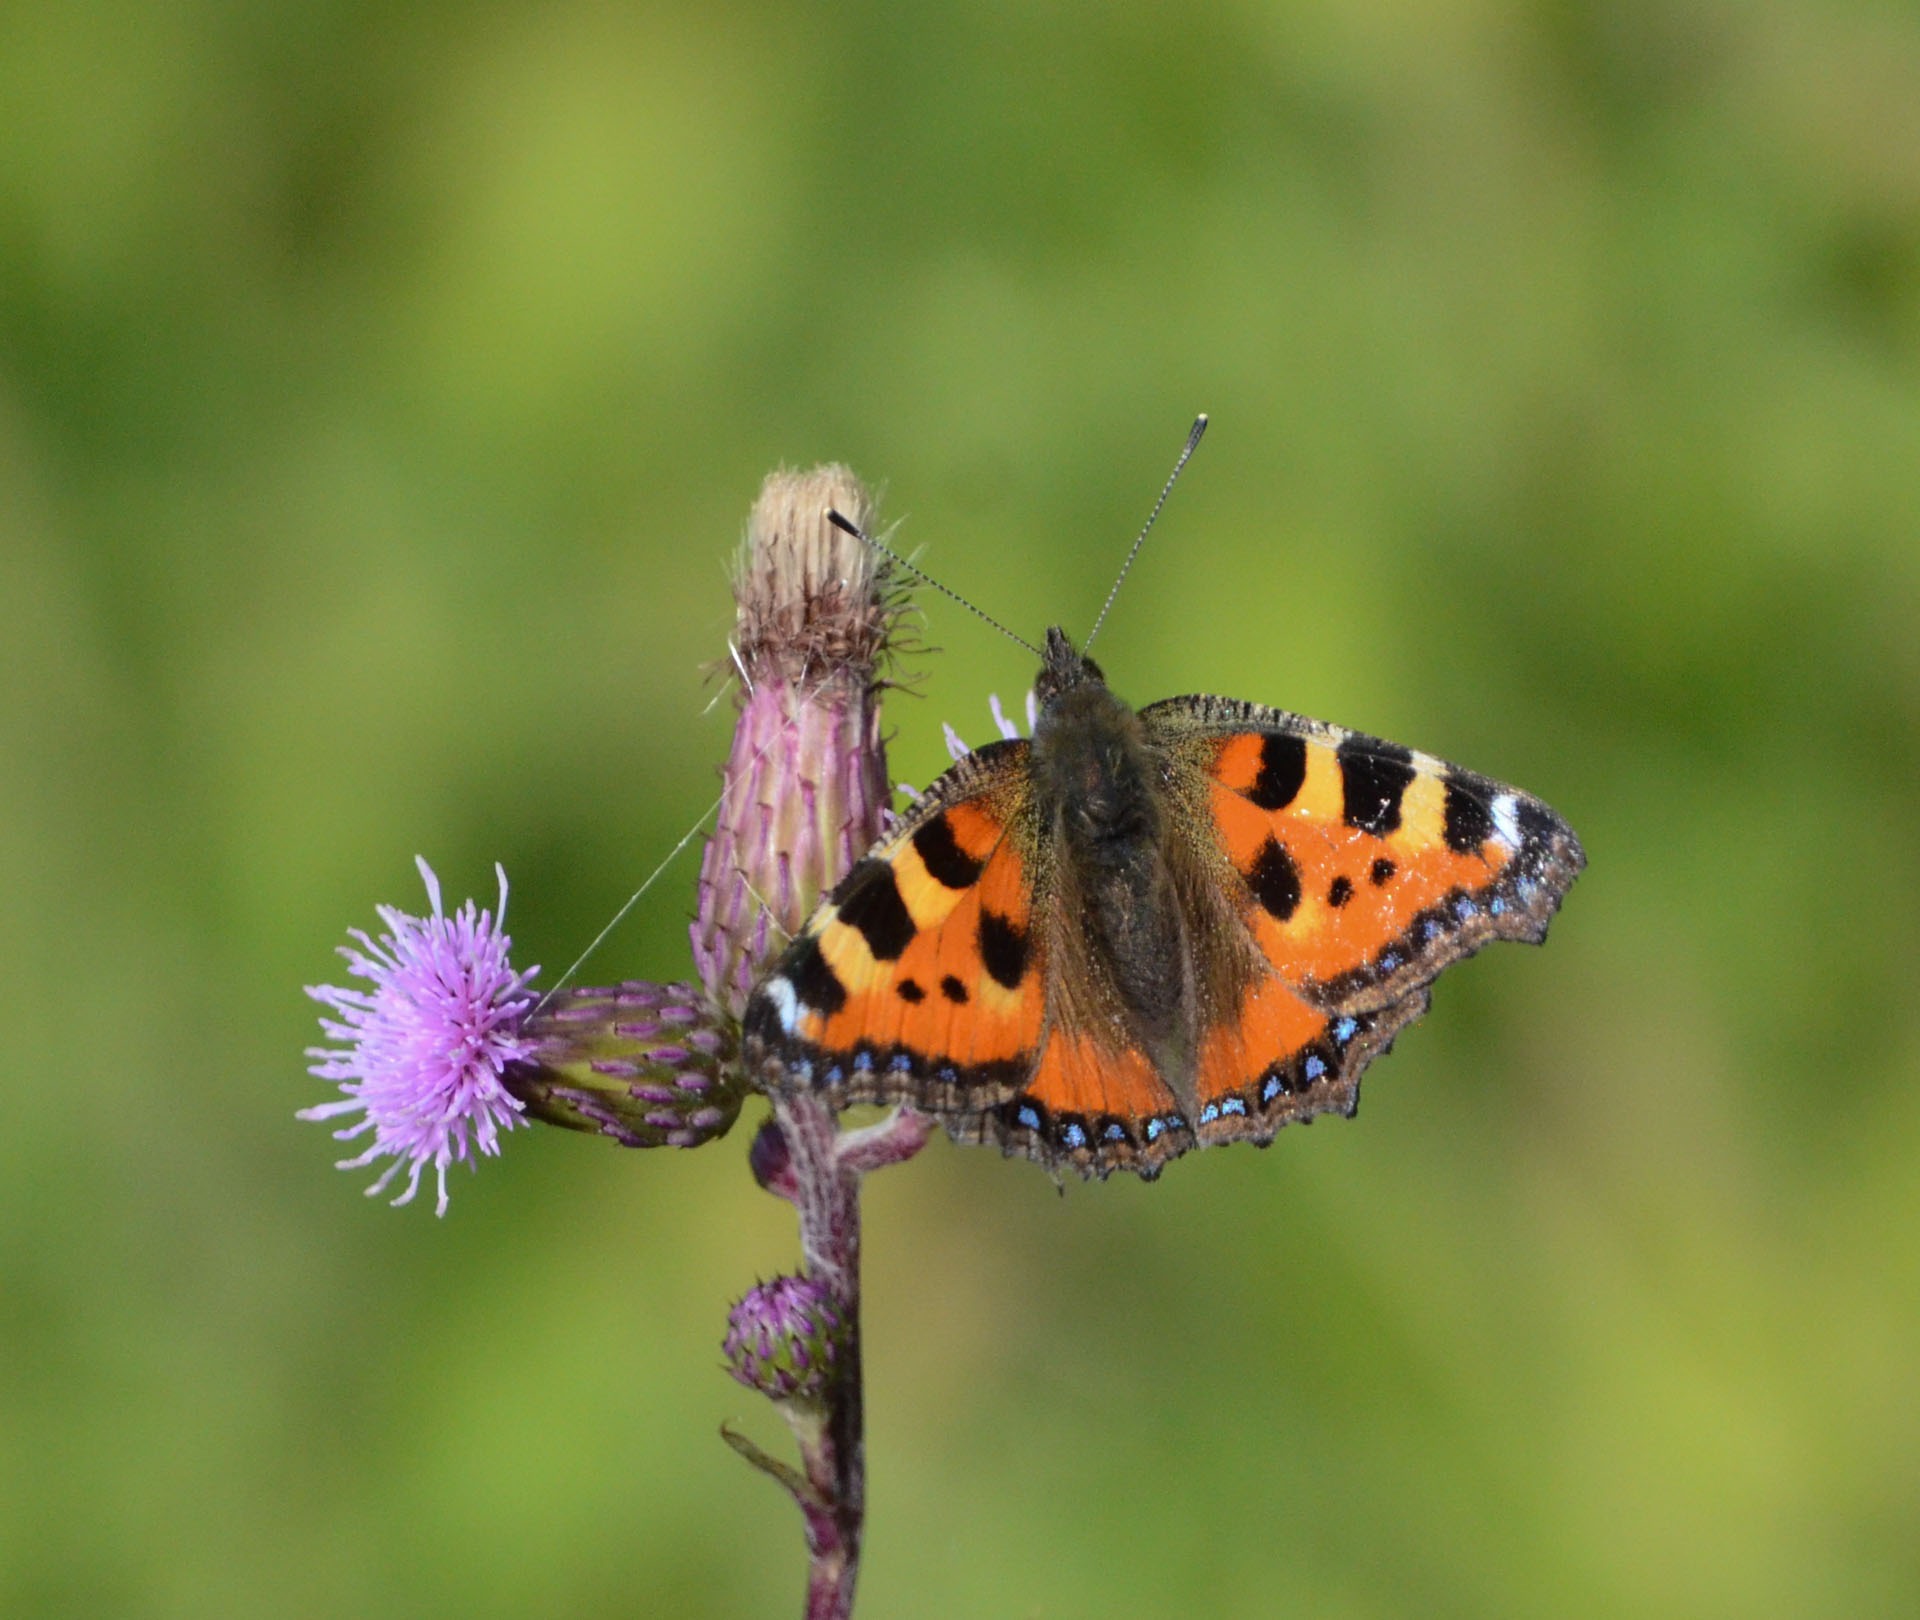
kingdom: Animalia
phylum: Arthropoda
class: Insecta
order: Lepidoptera
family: Nymphalidae
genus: Aglais
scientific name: Aglais urticae
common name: Nældens takvinge
